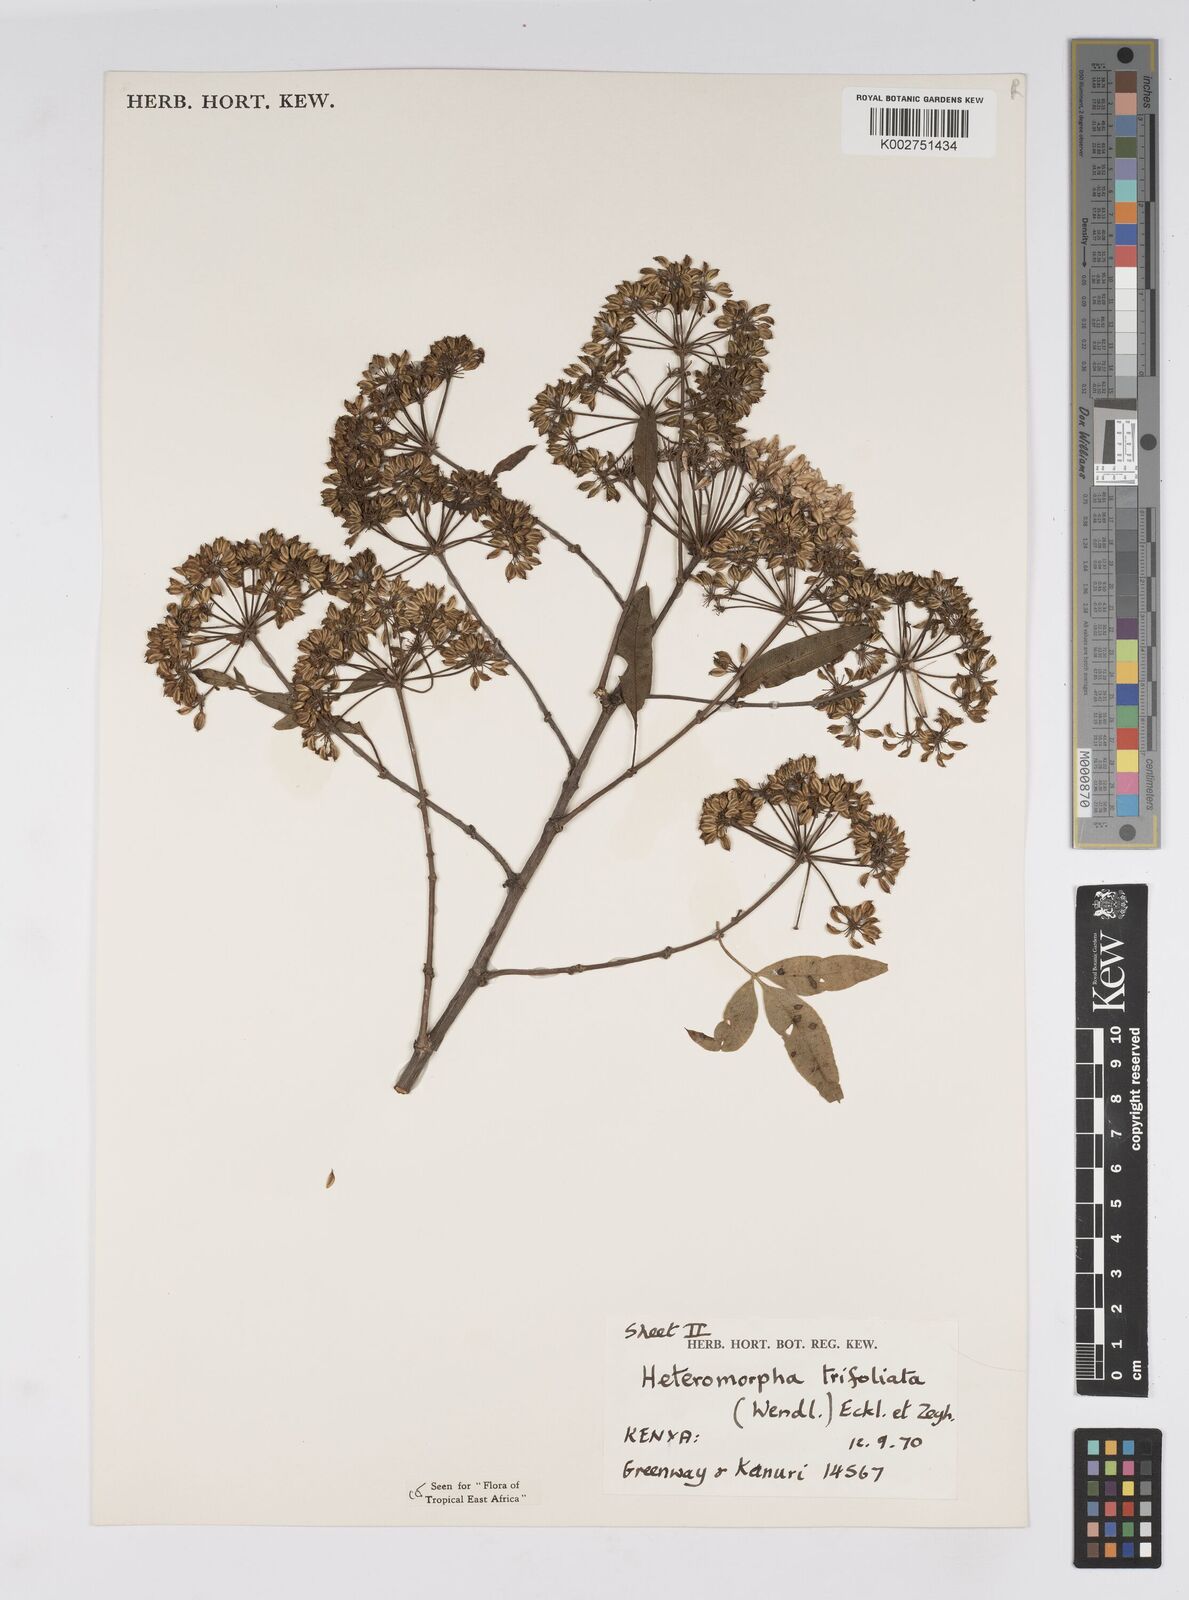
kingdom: Plantae
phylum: Tracheophyta
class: Magnoliopsida
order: Apiales
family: Apiaceae
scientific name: Apiaceae
